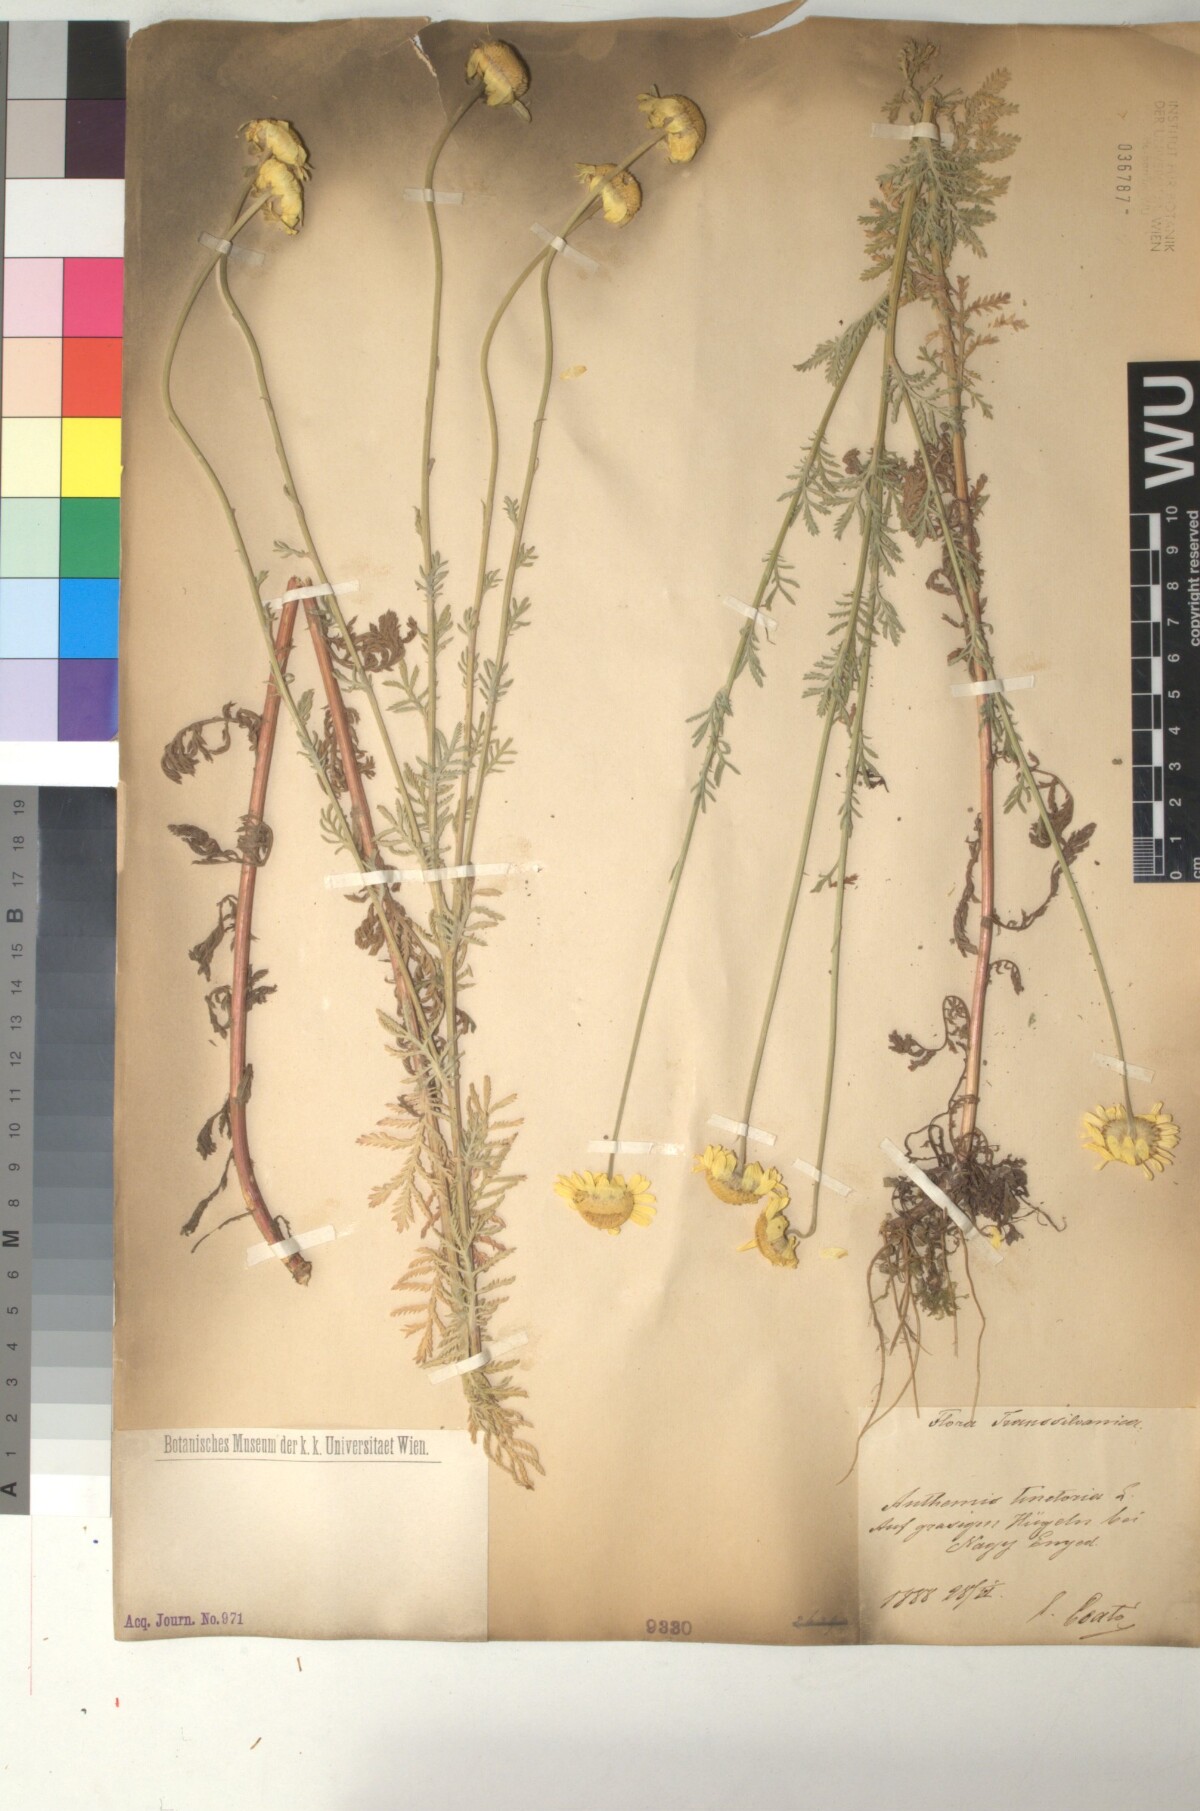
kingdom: Plantae
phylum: Tracheophyta
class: Magnoliopsida
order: Asterales
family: Asteraceae
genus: Cota
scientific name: Cota tinctoria
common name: Golden chamomile
